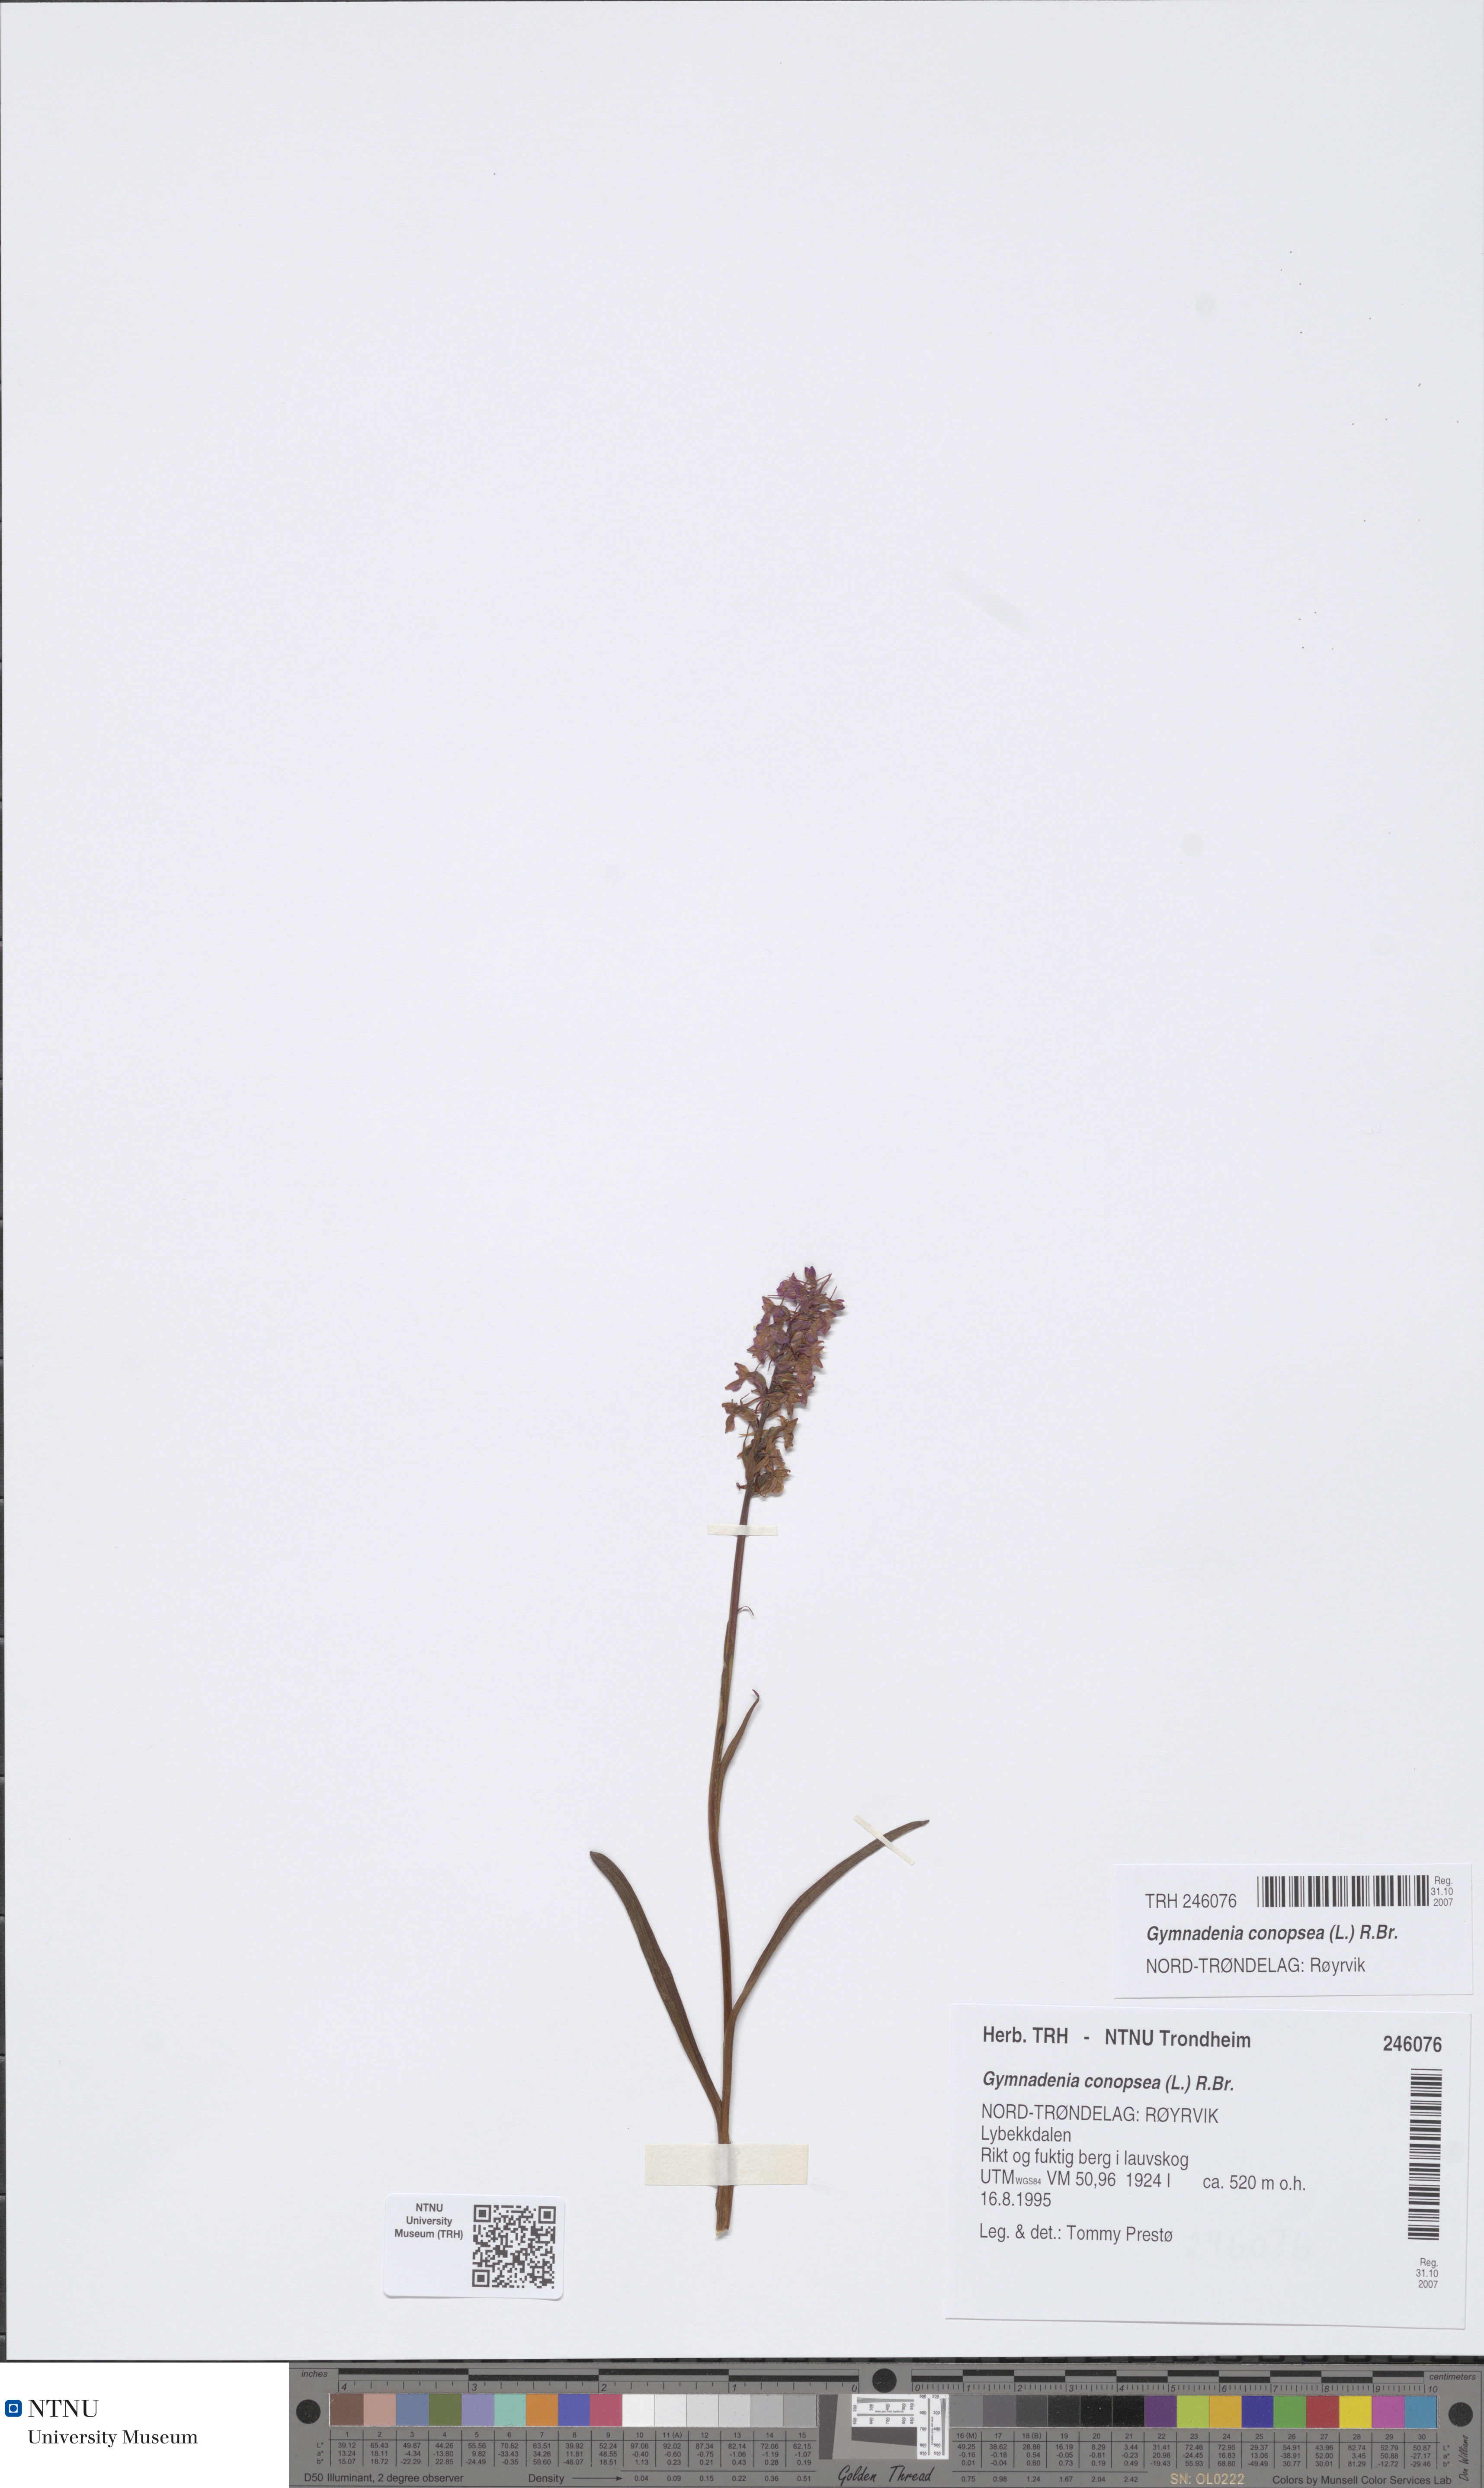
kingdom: Plantae
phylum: Tracheophyta
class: Liliopsida
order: Asparagales
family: Orchidaceae
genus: Gymnadenia
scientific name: Gymnadenia conopsea
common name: Fragrant orchid
